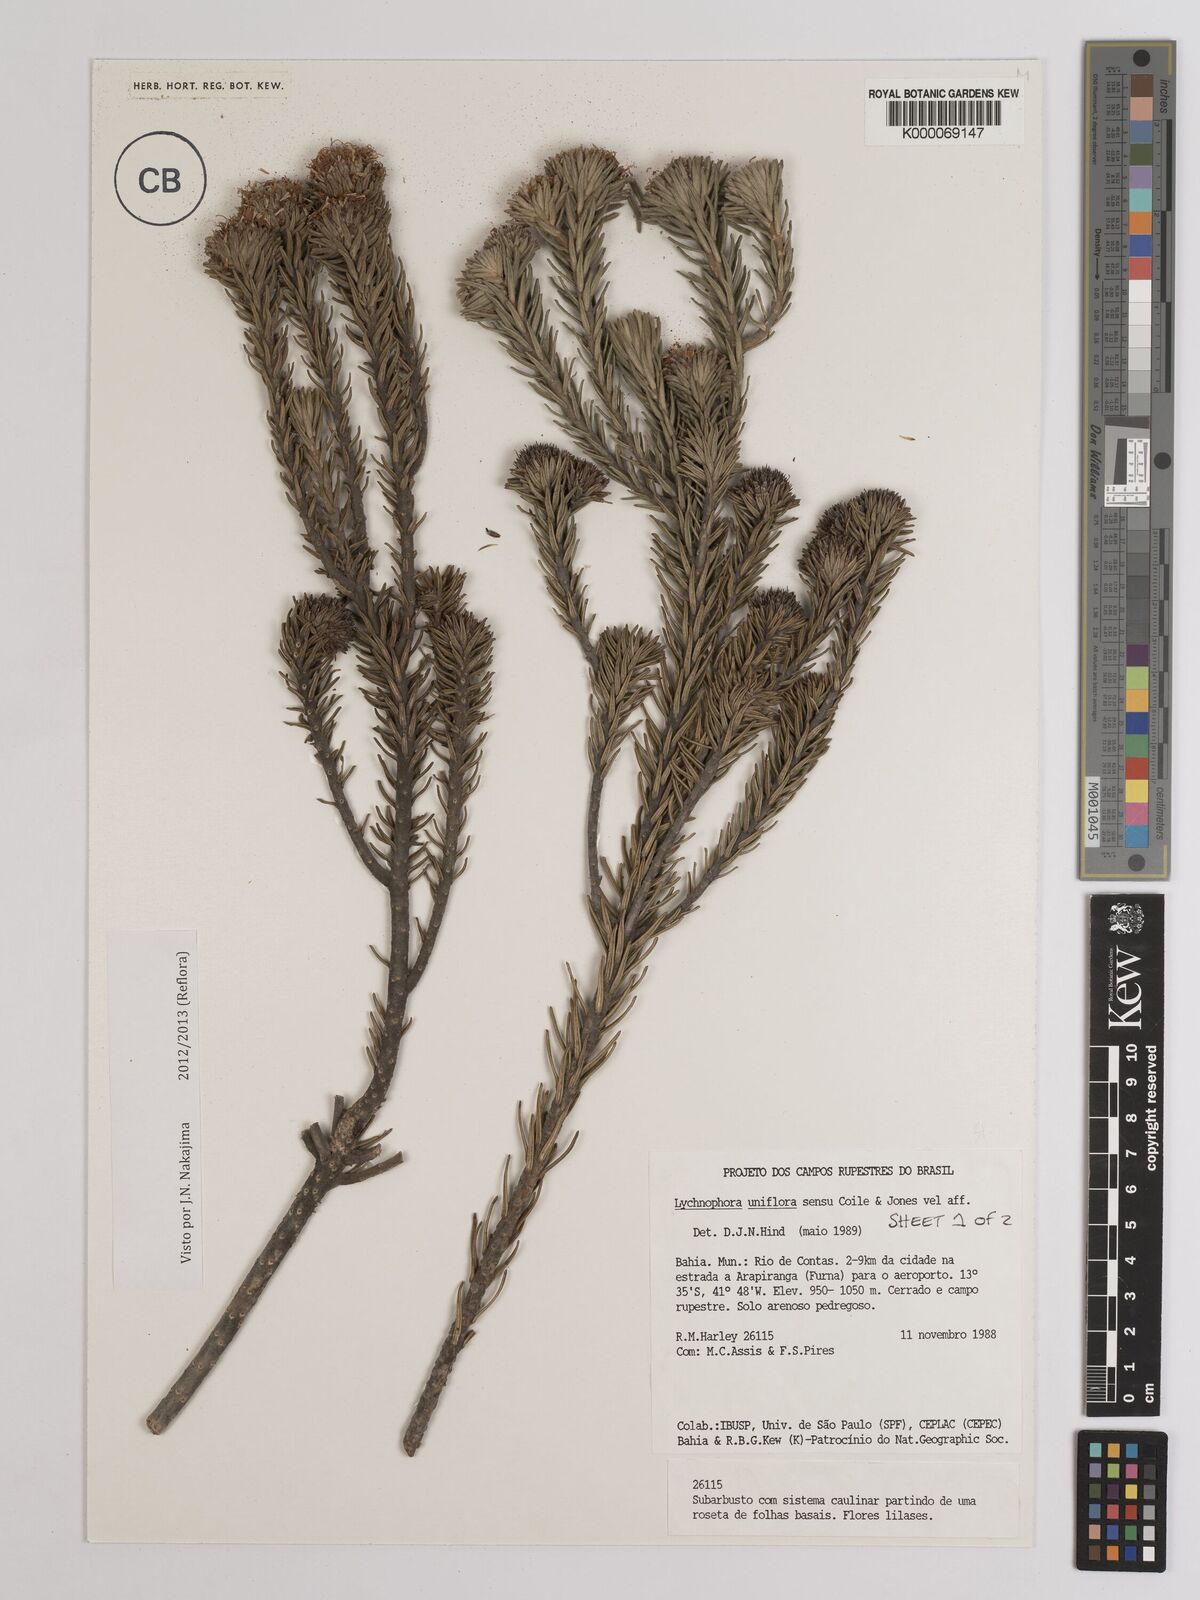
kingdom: Plantae
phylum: Tracheophyta
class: Magnoliopsida
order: Asterales
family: Asteraceae
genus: Lychnophora
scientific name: Lychnophora uniflora
